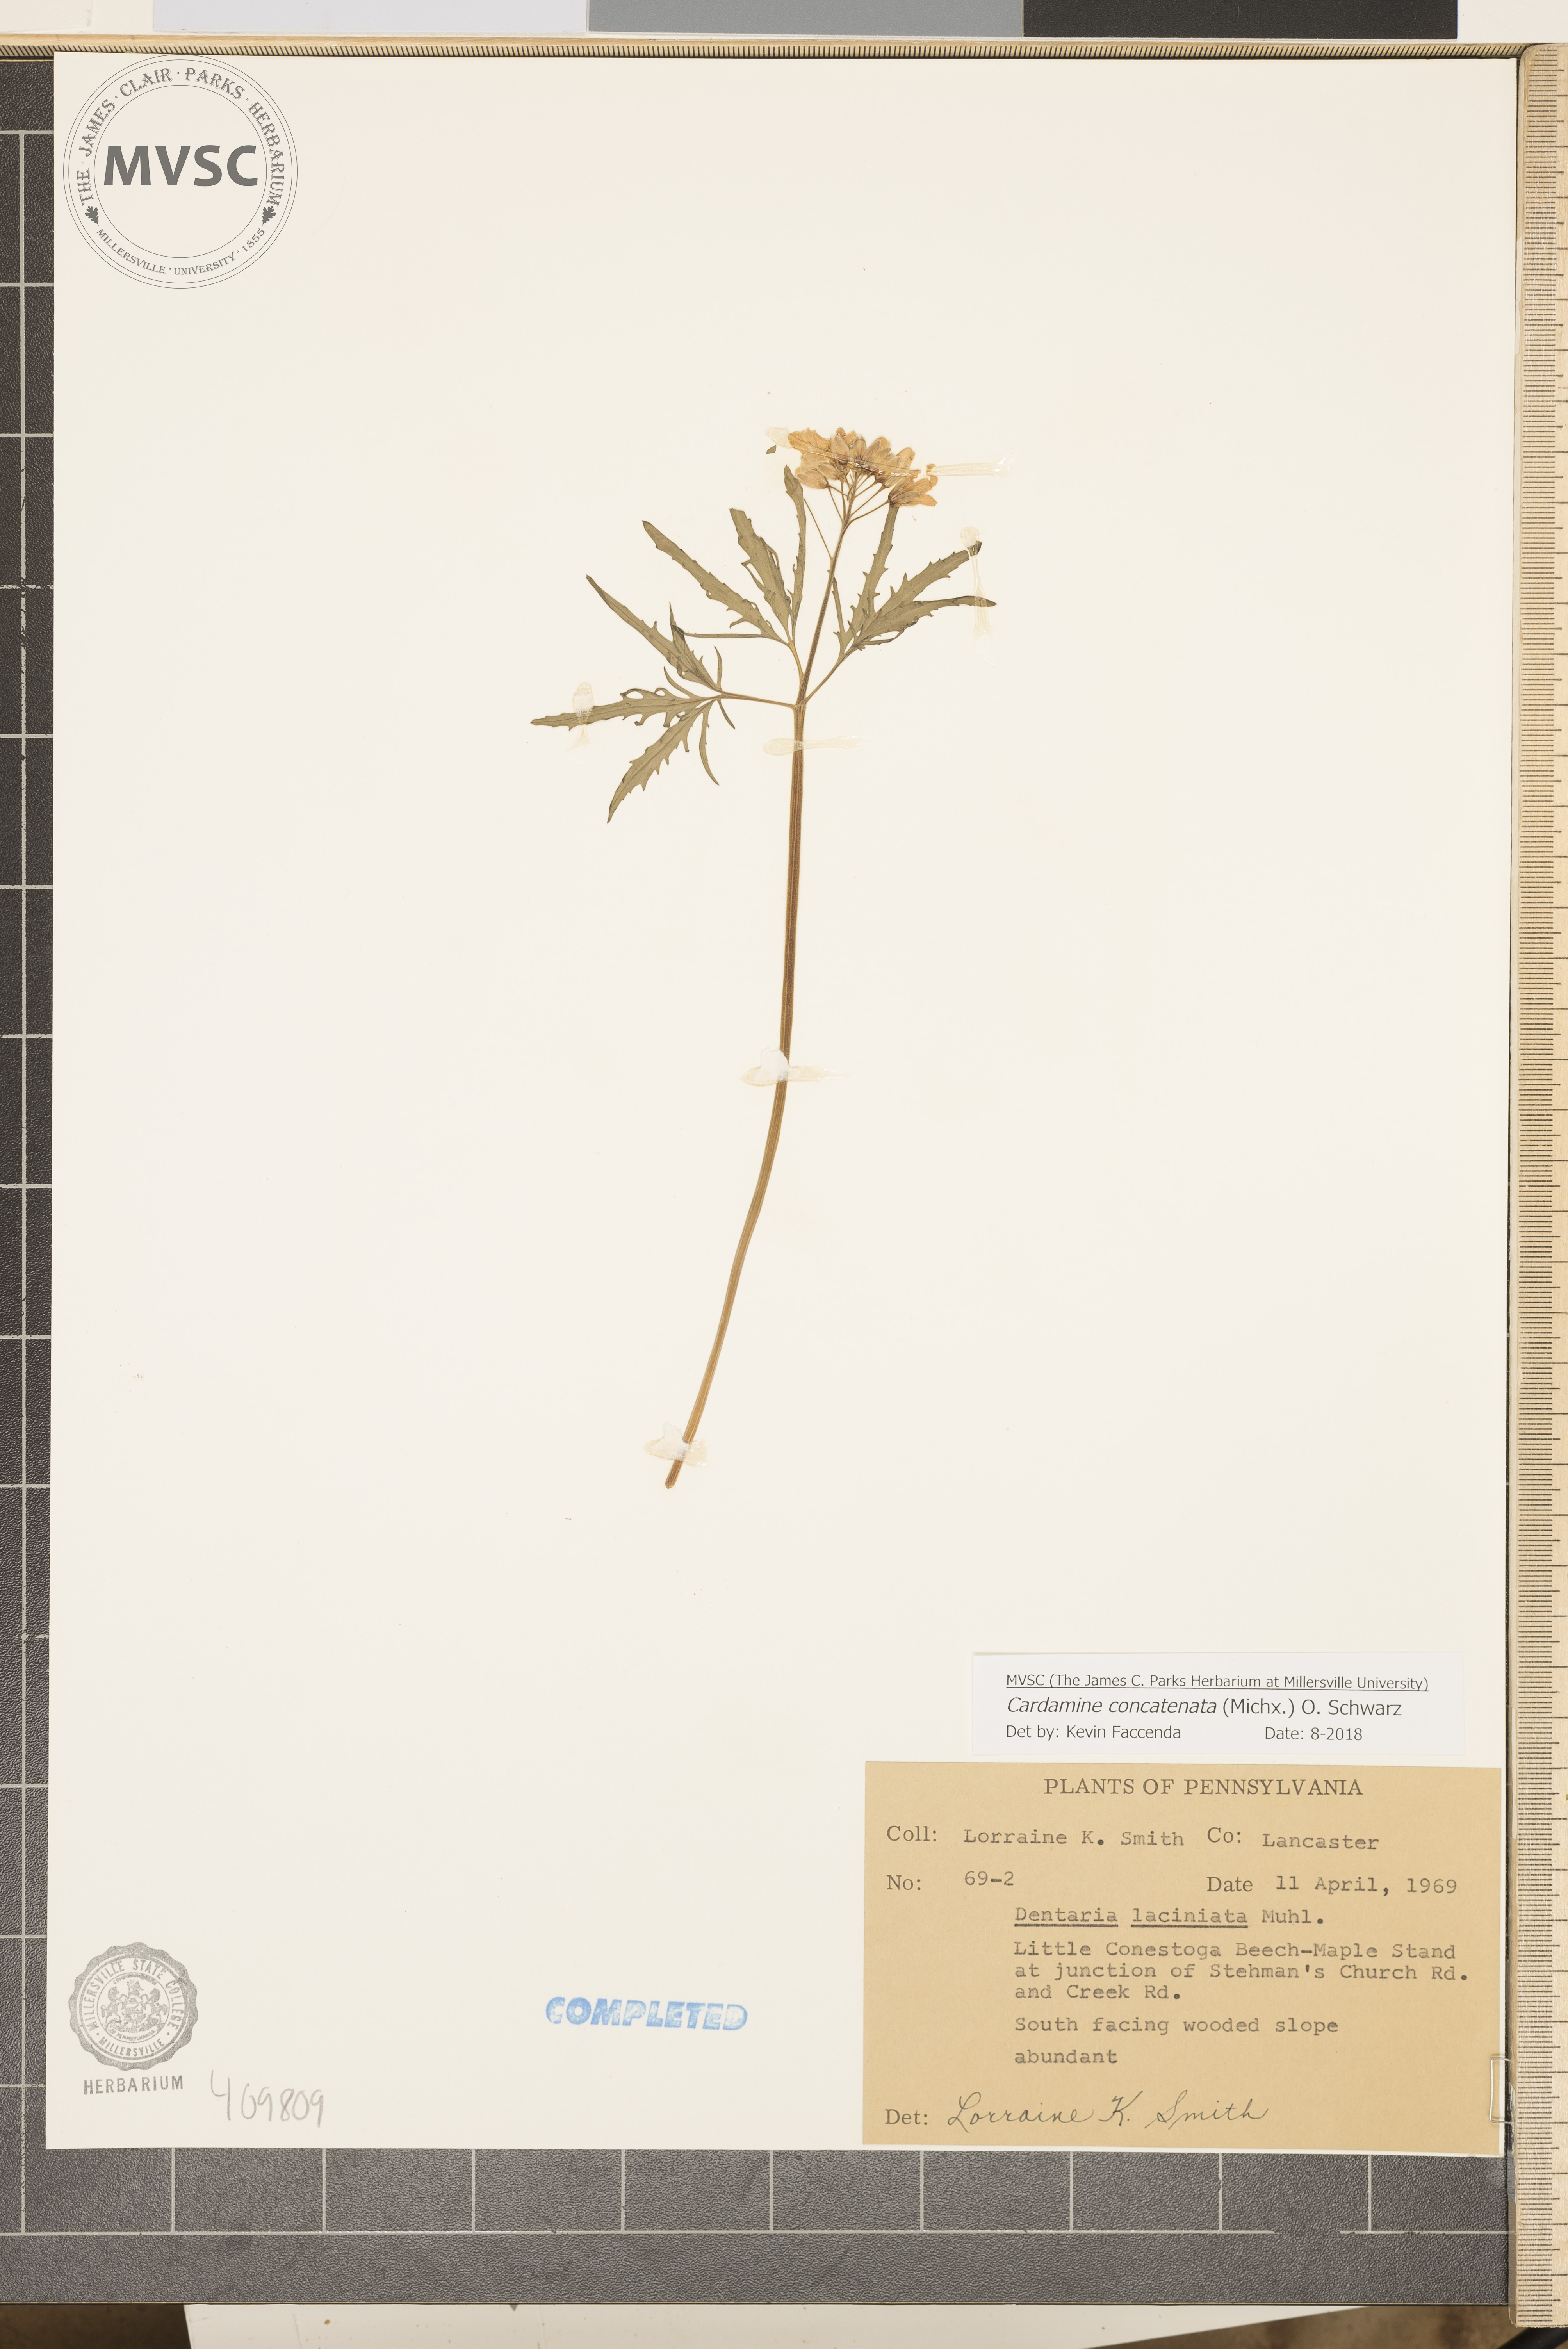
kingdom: Plantae
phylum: Tracheophyta
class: Magnoliopsida
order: Brassicales
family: Brassicaceae
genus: Cardamine
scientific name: Cardamine concatenata
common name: Cut-leaf toothcup
